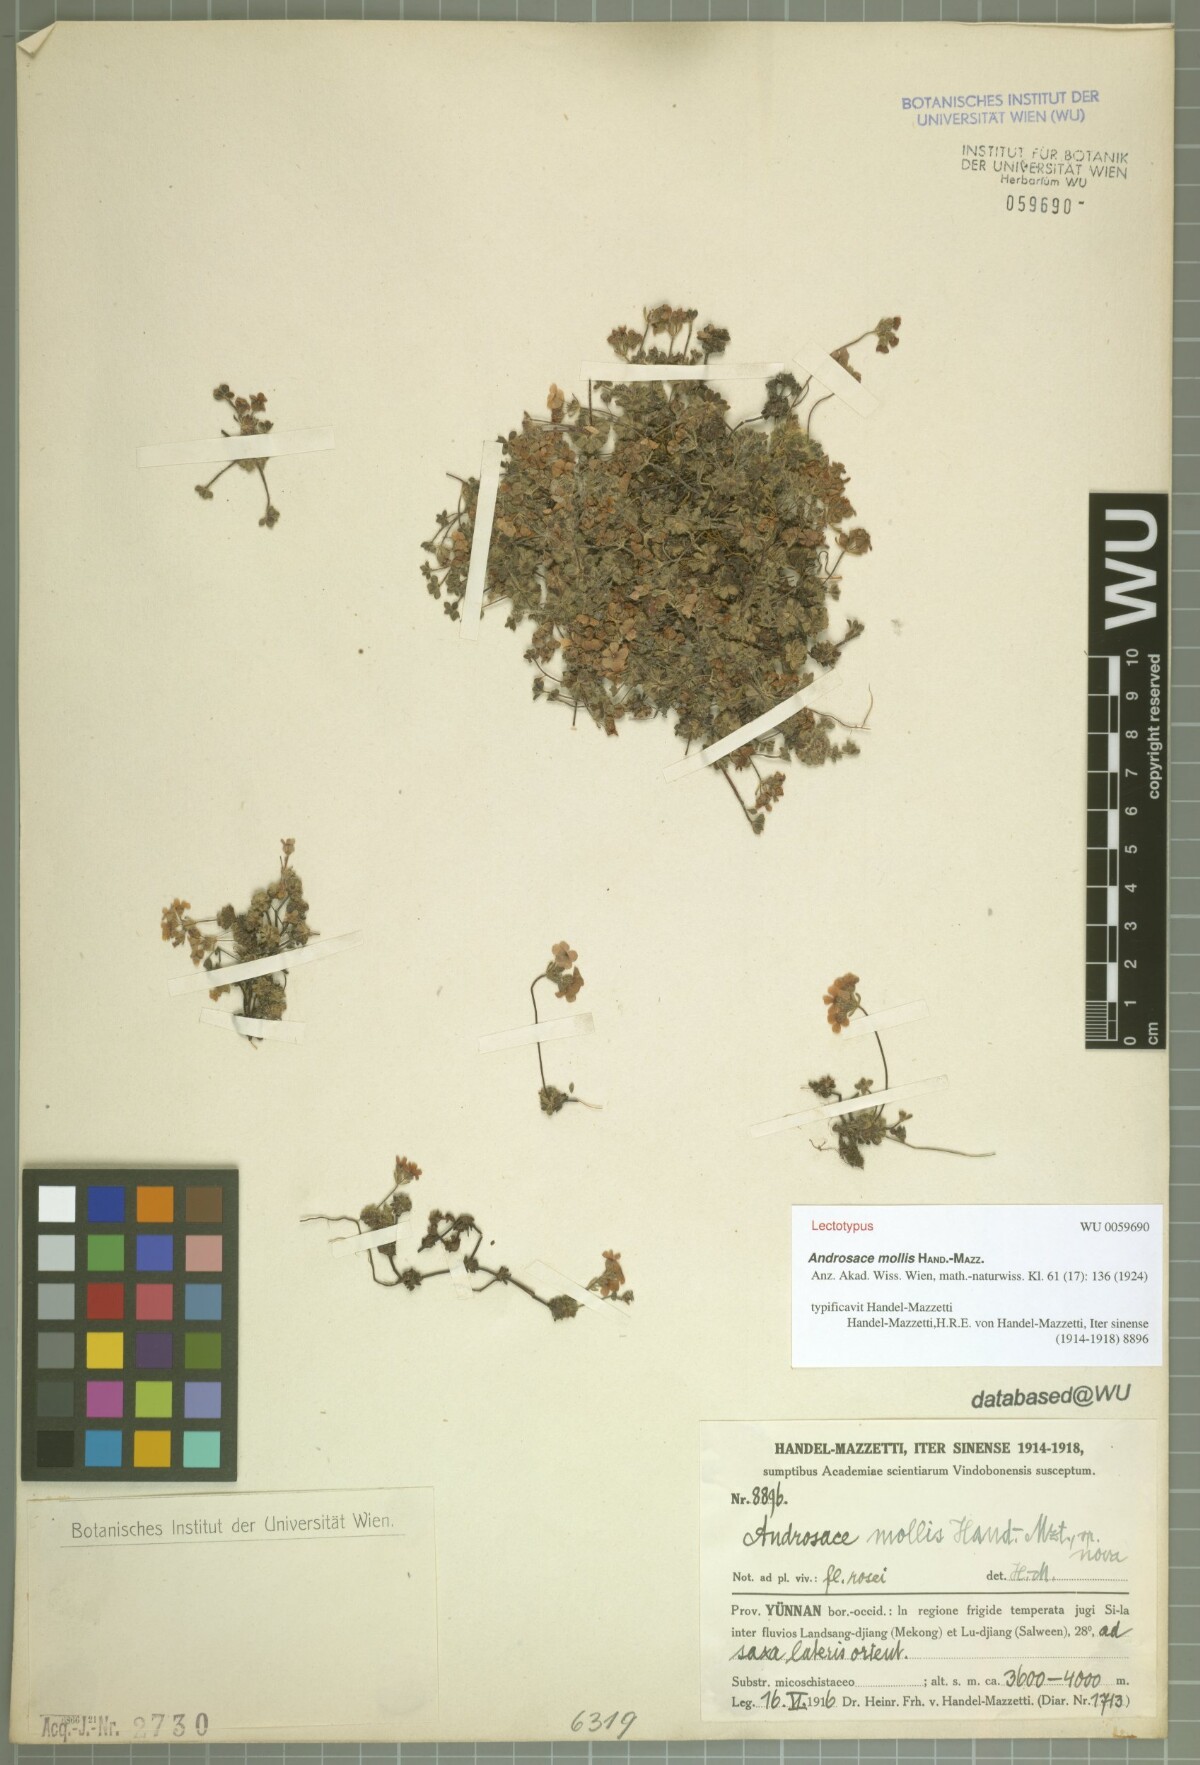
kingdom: Plantae
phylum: Tracheophyta
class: Magnoliopsida
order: Ericales
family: Primulaceae
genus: Androsace
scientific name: Androsace mollis
